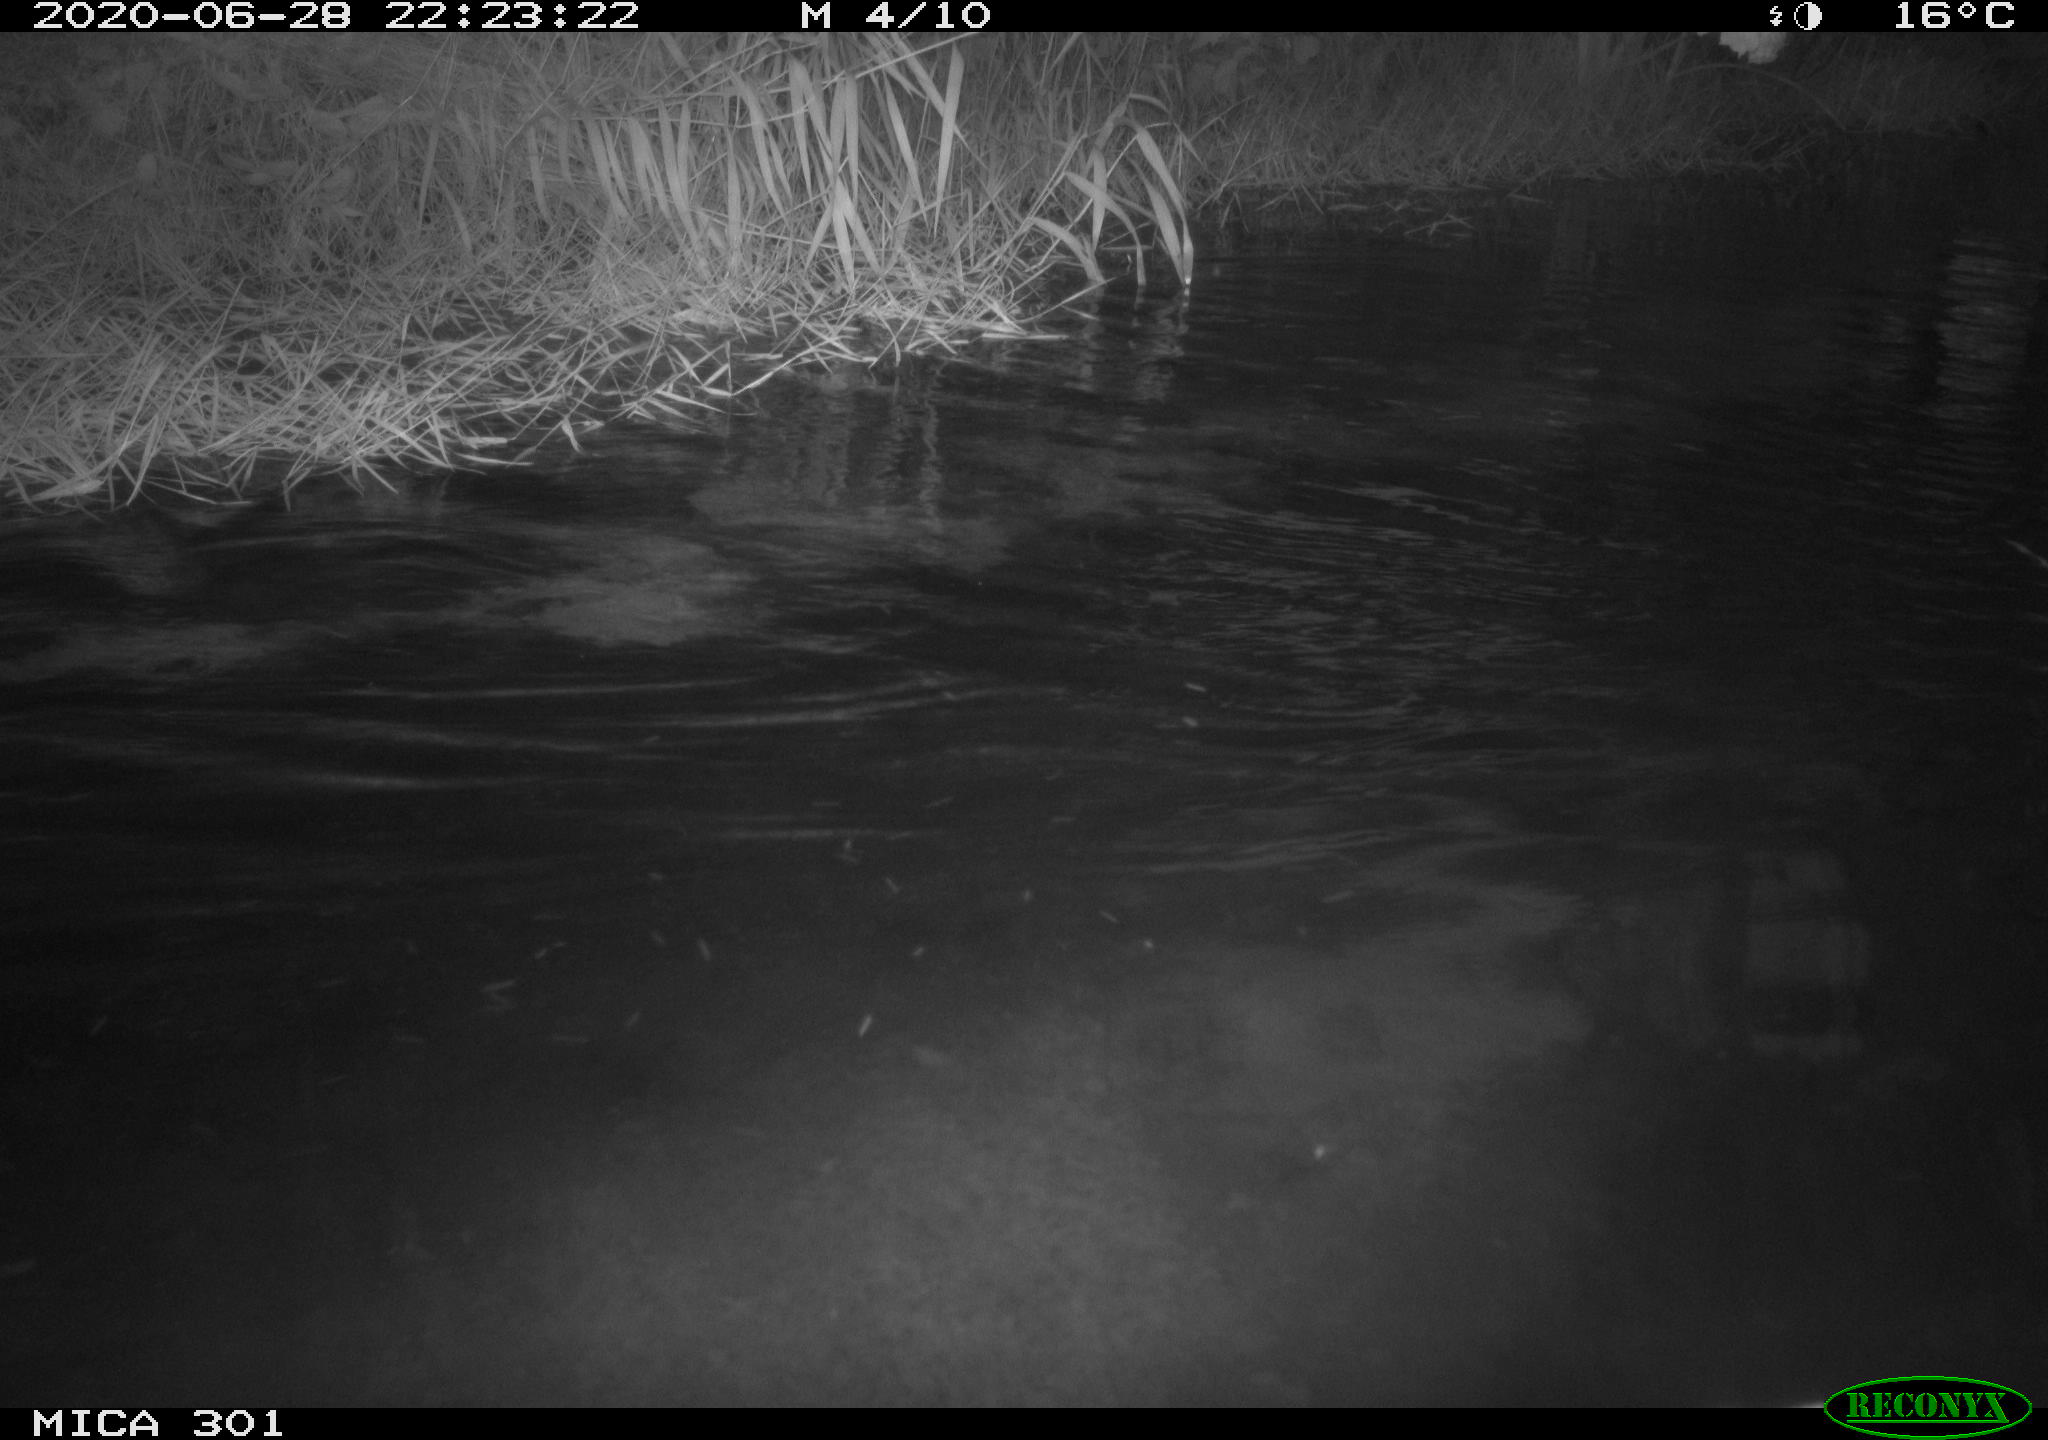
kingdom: Animalia
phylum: Chordata
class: Mammalia
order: Rodentia
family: Castoridae
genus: Castor
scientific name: Castor fiber
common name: Eurasian beaver
